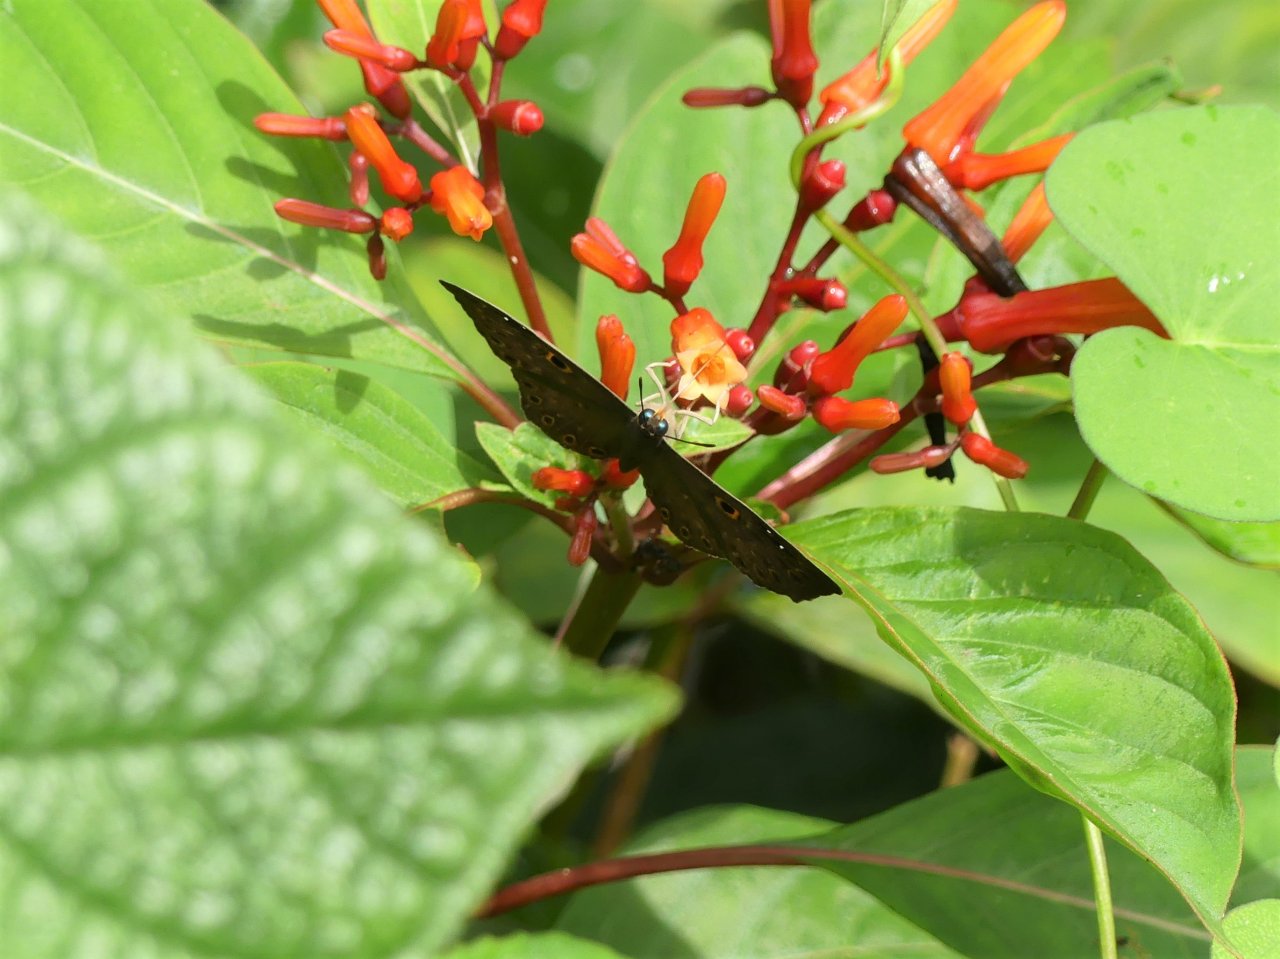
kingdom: Animalia
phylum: Cnidaria
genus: Eurybia
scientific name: Eurybia dardus
